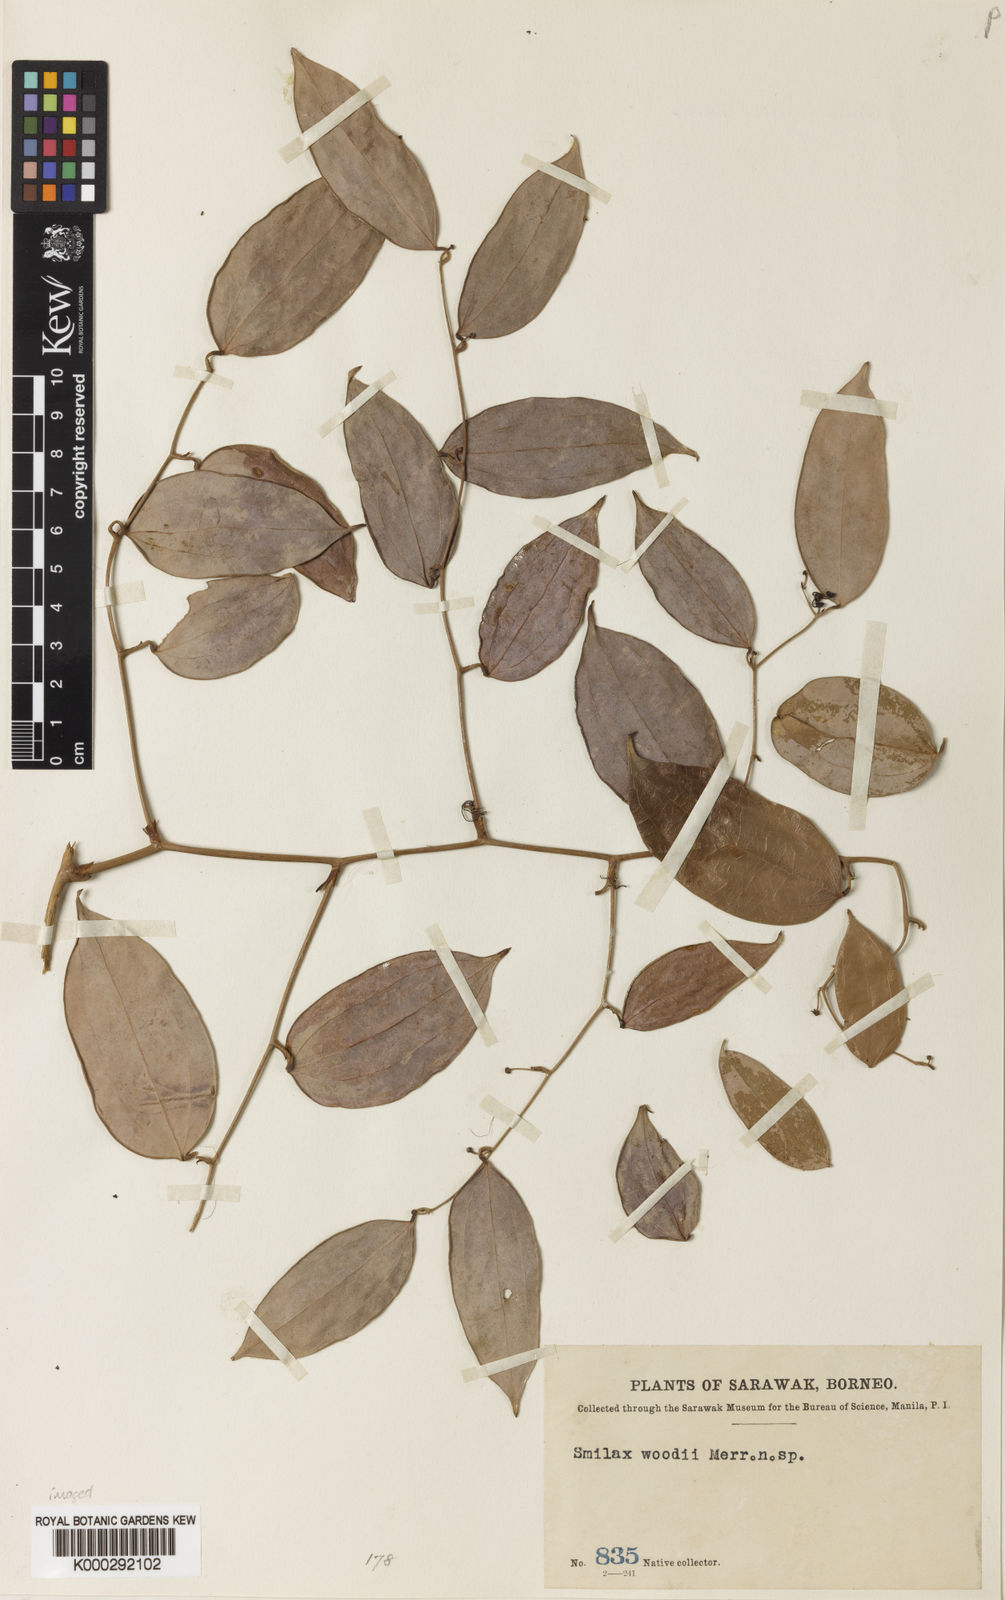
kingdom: Plantae
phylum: Tracheophyta
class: Liliopsida
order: Liliales
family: Smilacaceae
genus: Smilax
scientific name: Smilax corbularia
